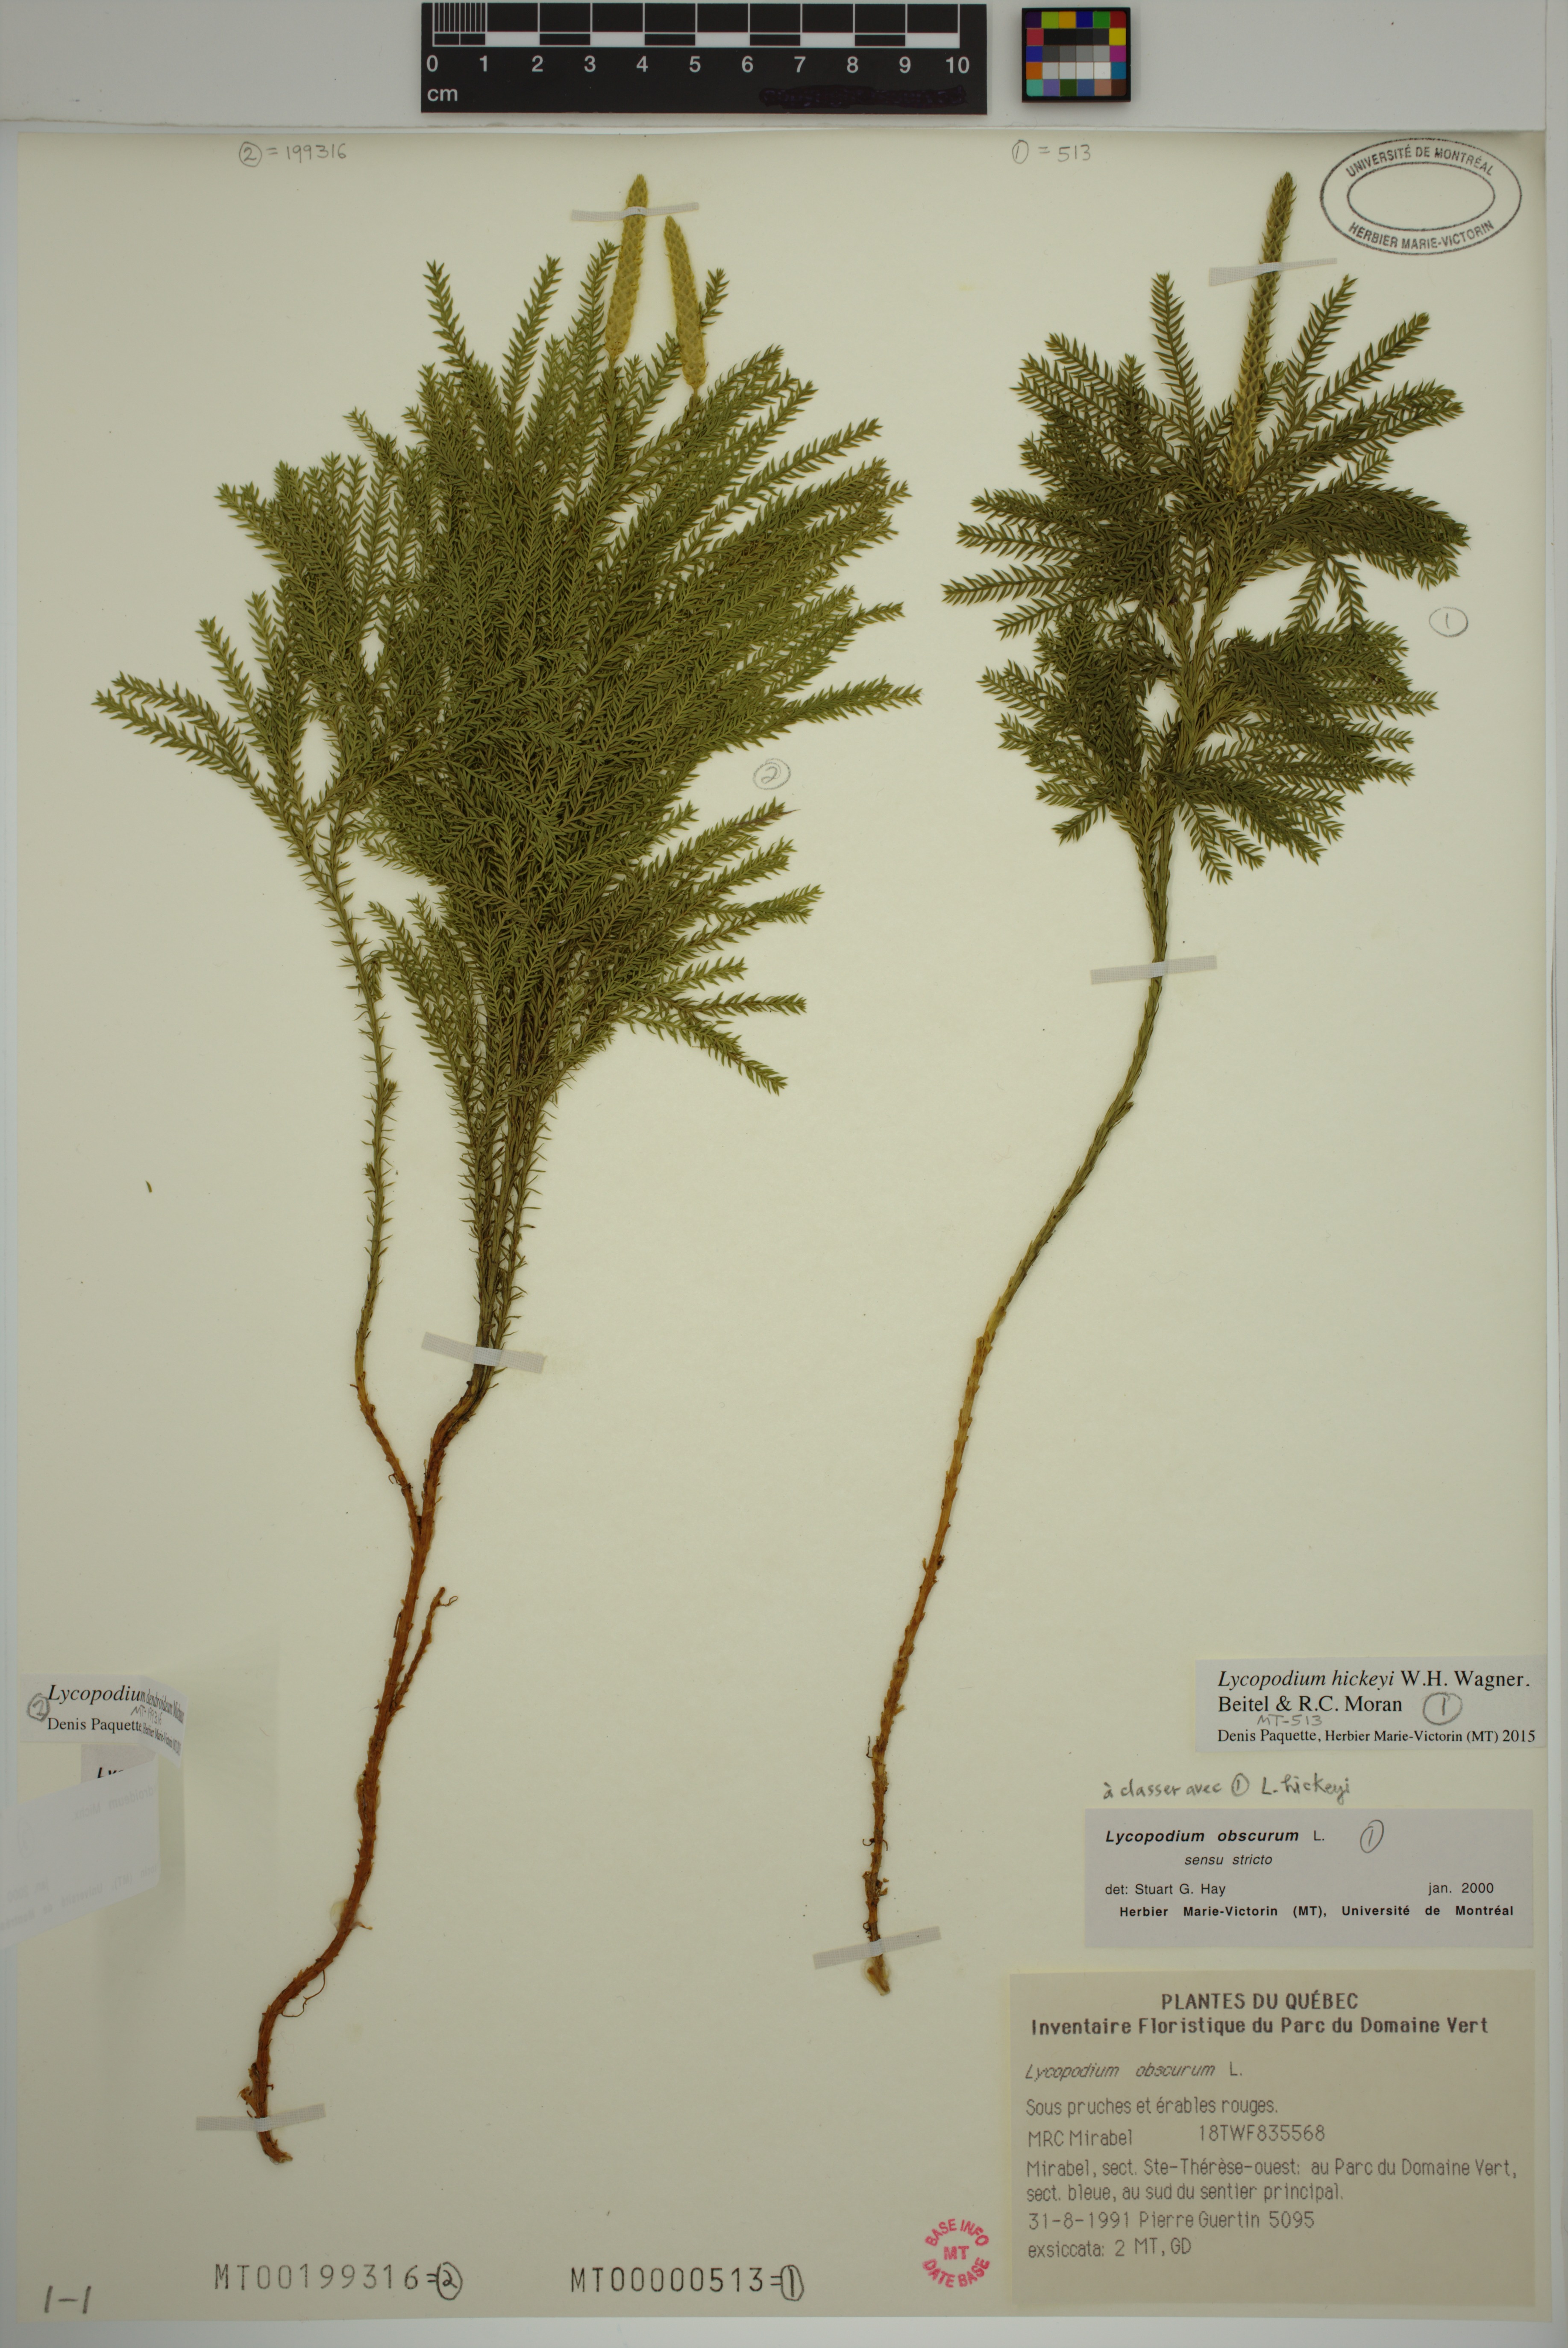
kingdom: Plantae
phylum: Tracheophyta
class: Lycopodiopsida
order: Lycopodiales
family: Lycopodiaceae
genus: Dendrolycopodium
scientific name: Dendrolycopodium dendroideum
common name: Northern tree-clubmoss
